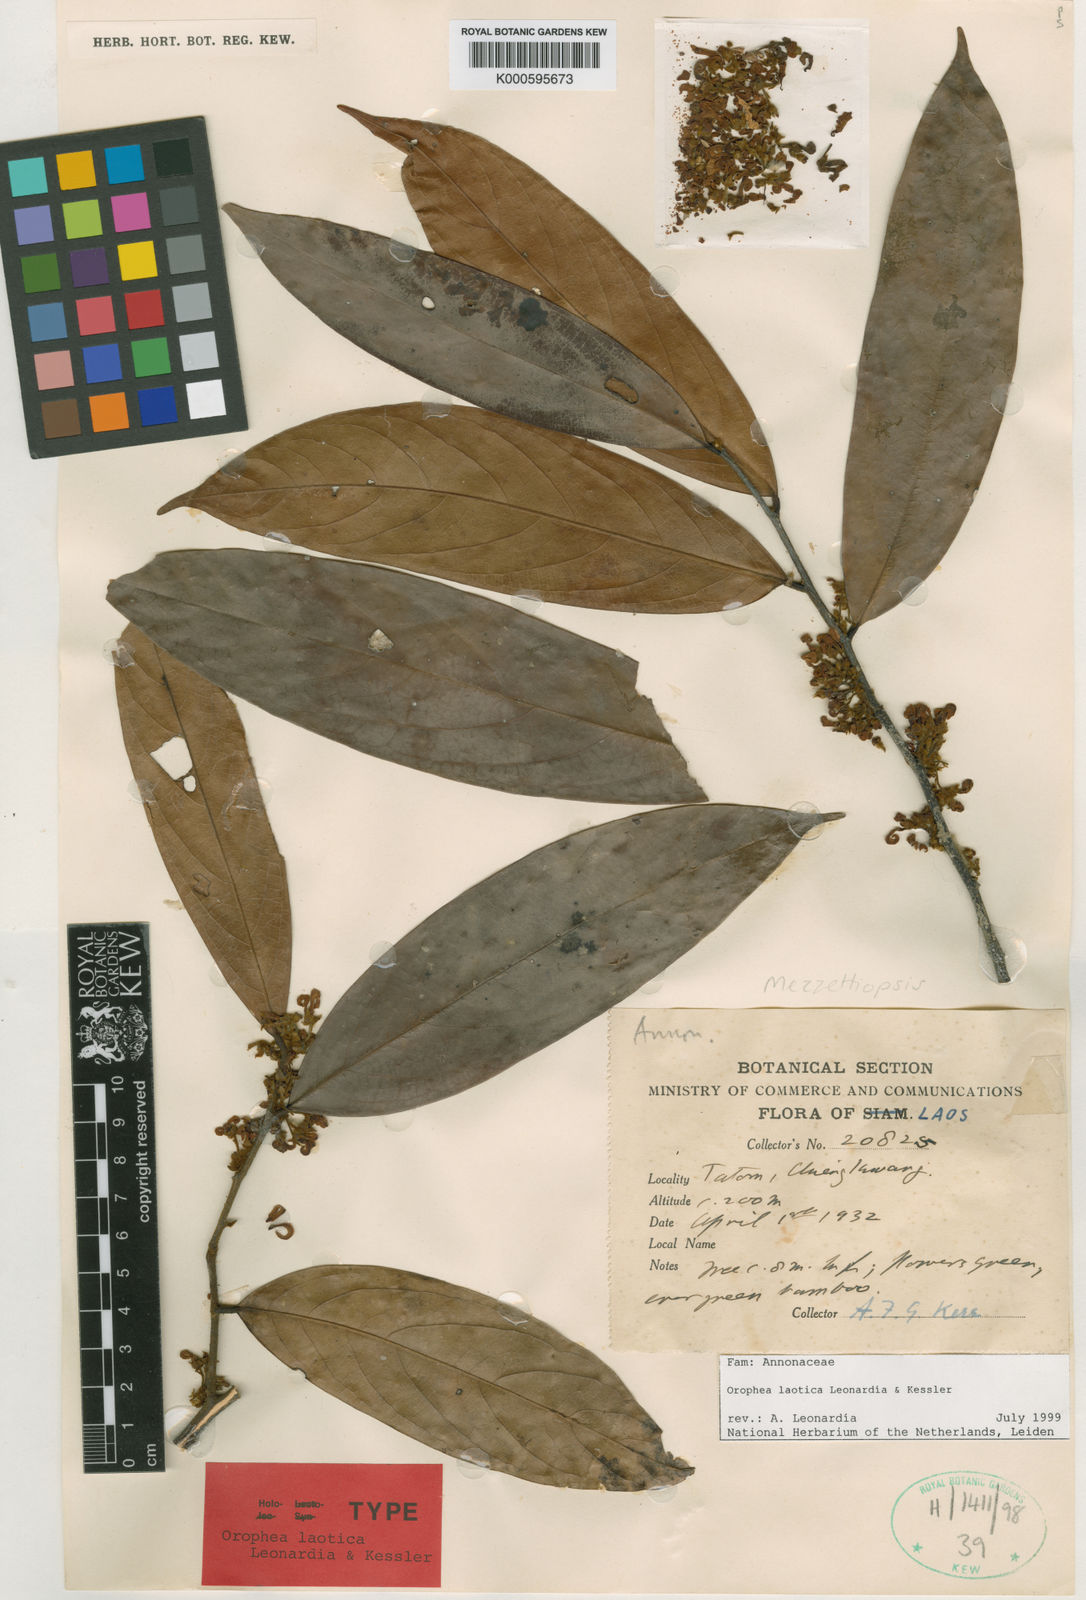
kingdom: Plantae
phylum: Tracheophyta
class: Magnoliopsida
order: Magnoliales
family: Annonaceae
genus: Orophea
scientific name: Orophea
